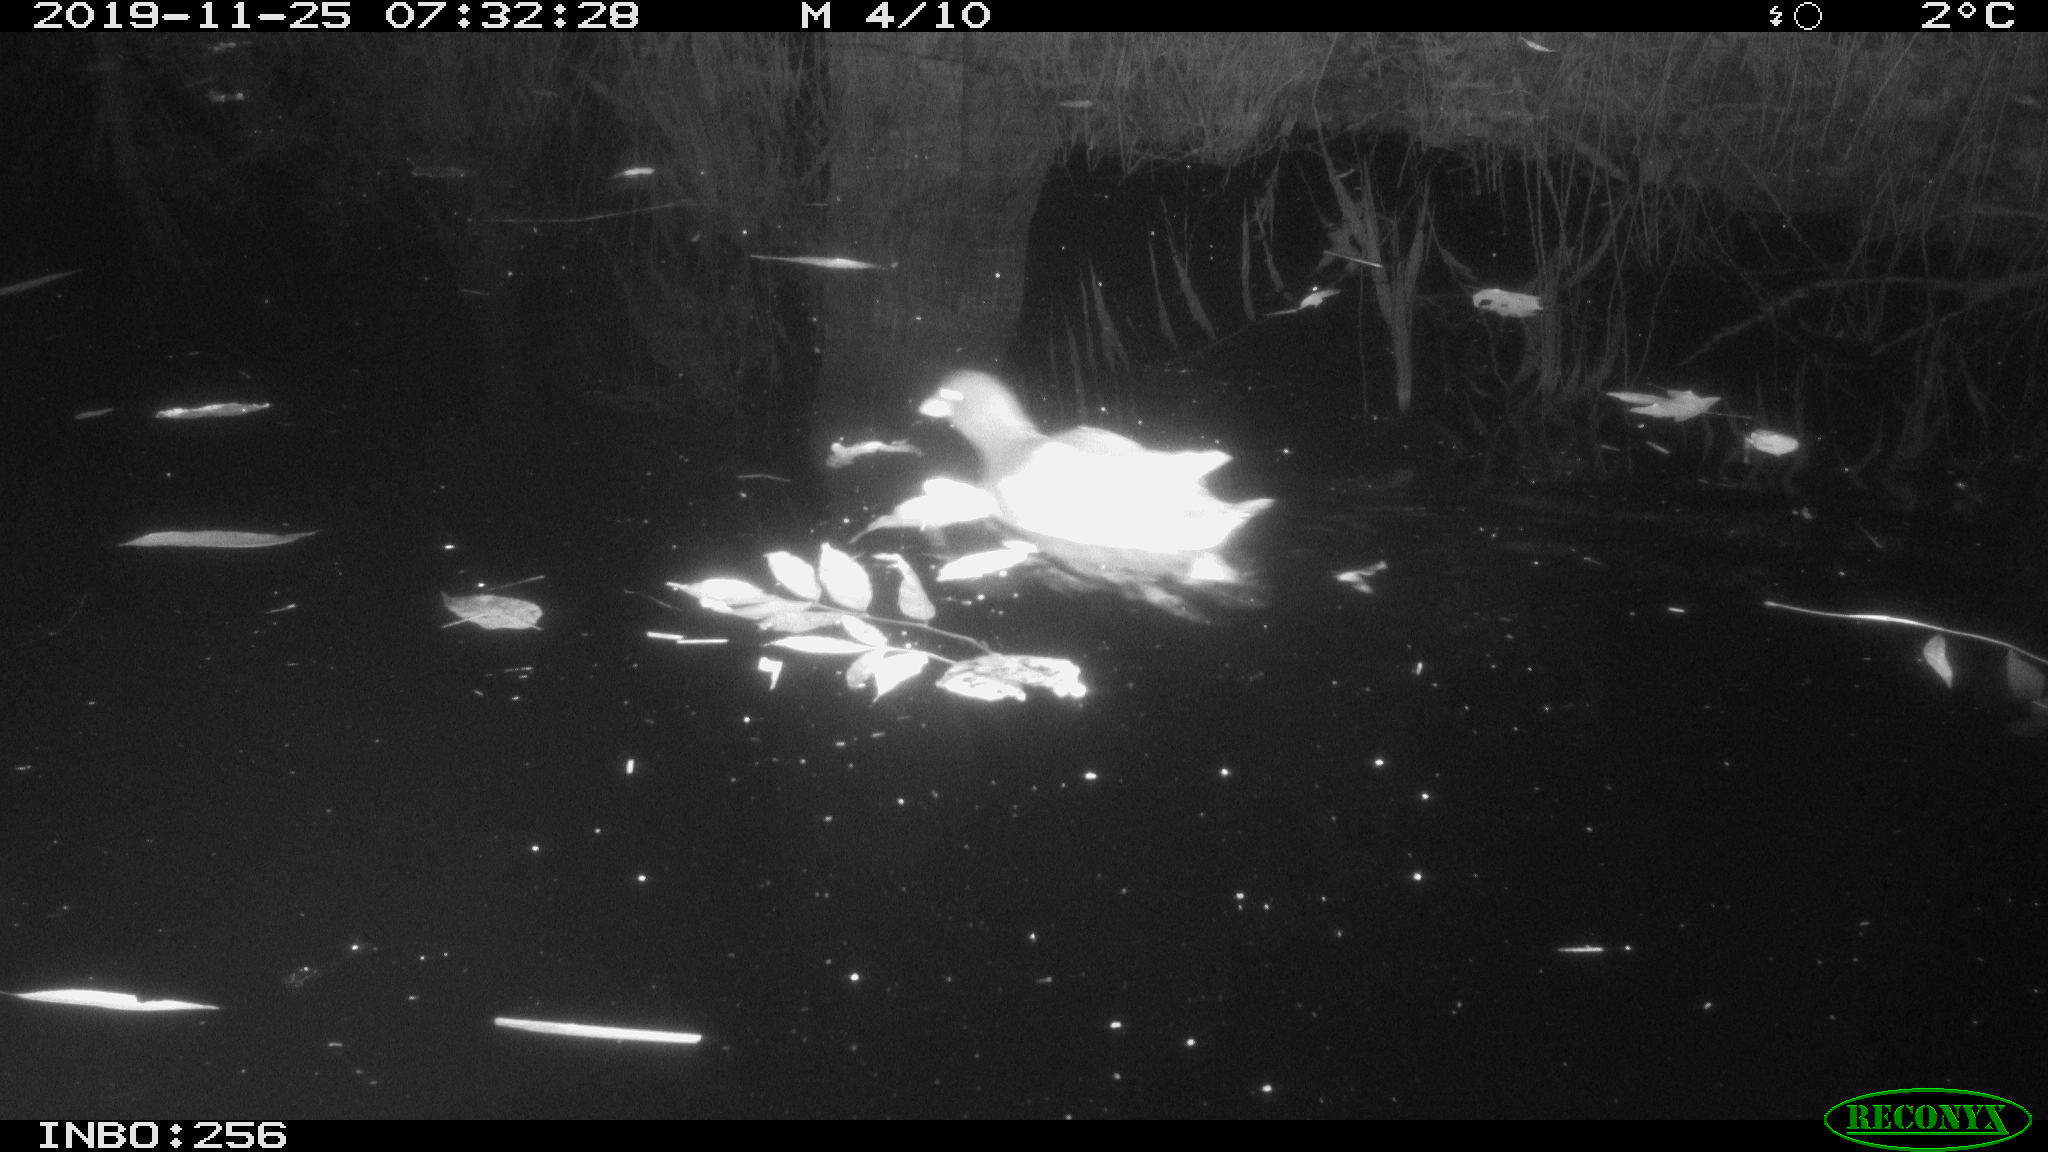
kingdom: Animalia
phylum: Chordata
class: Aves
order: Gruiformes
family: Rallidae
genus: Gallinula
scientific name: Gallinula chloropus
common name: Common moorhen
